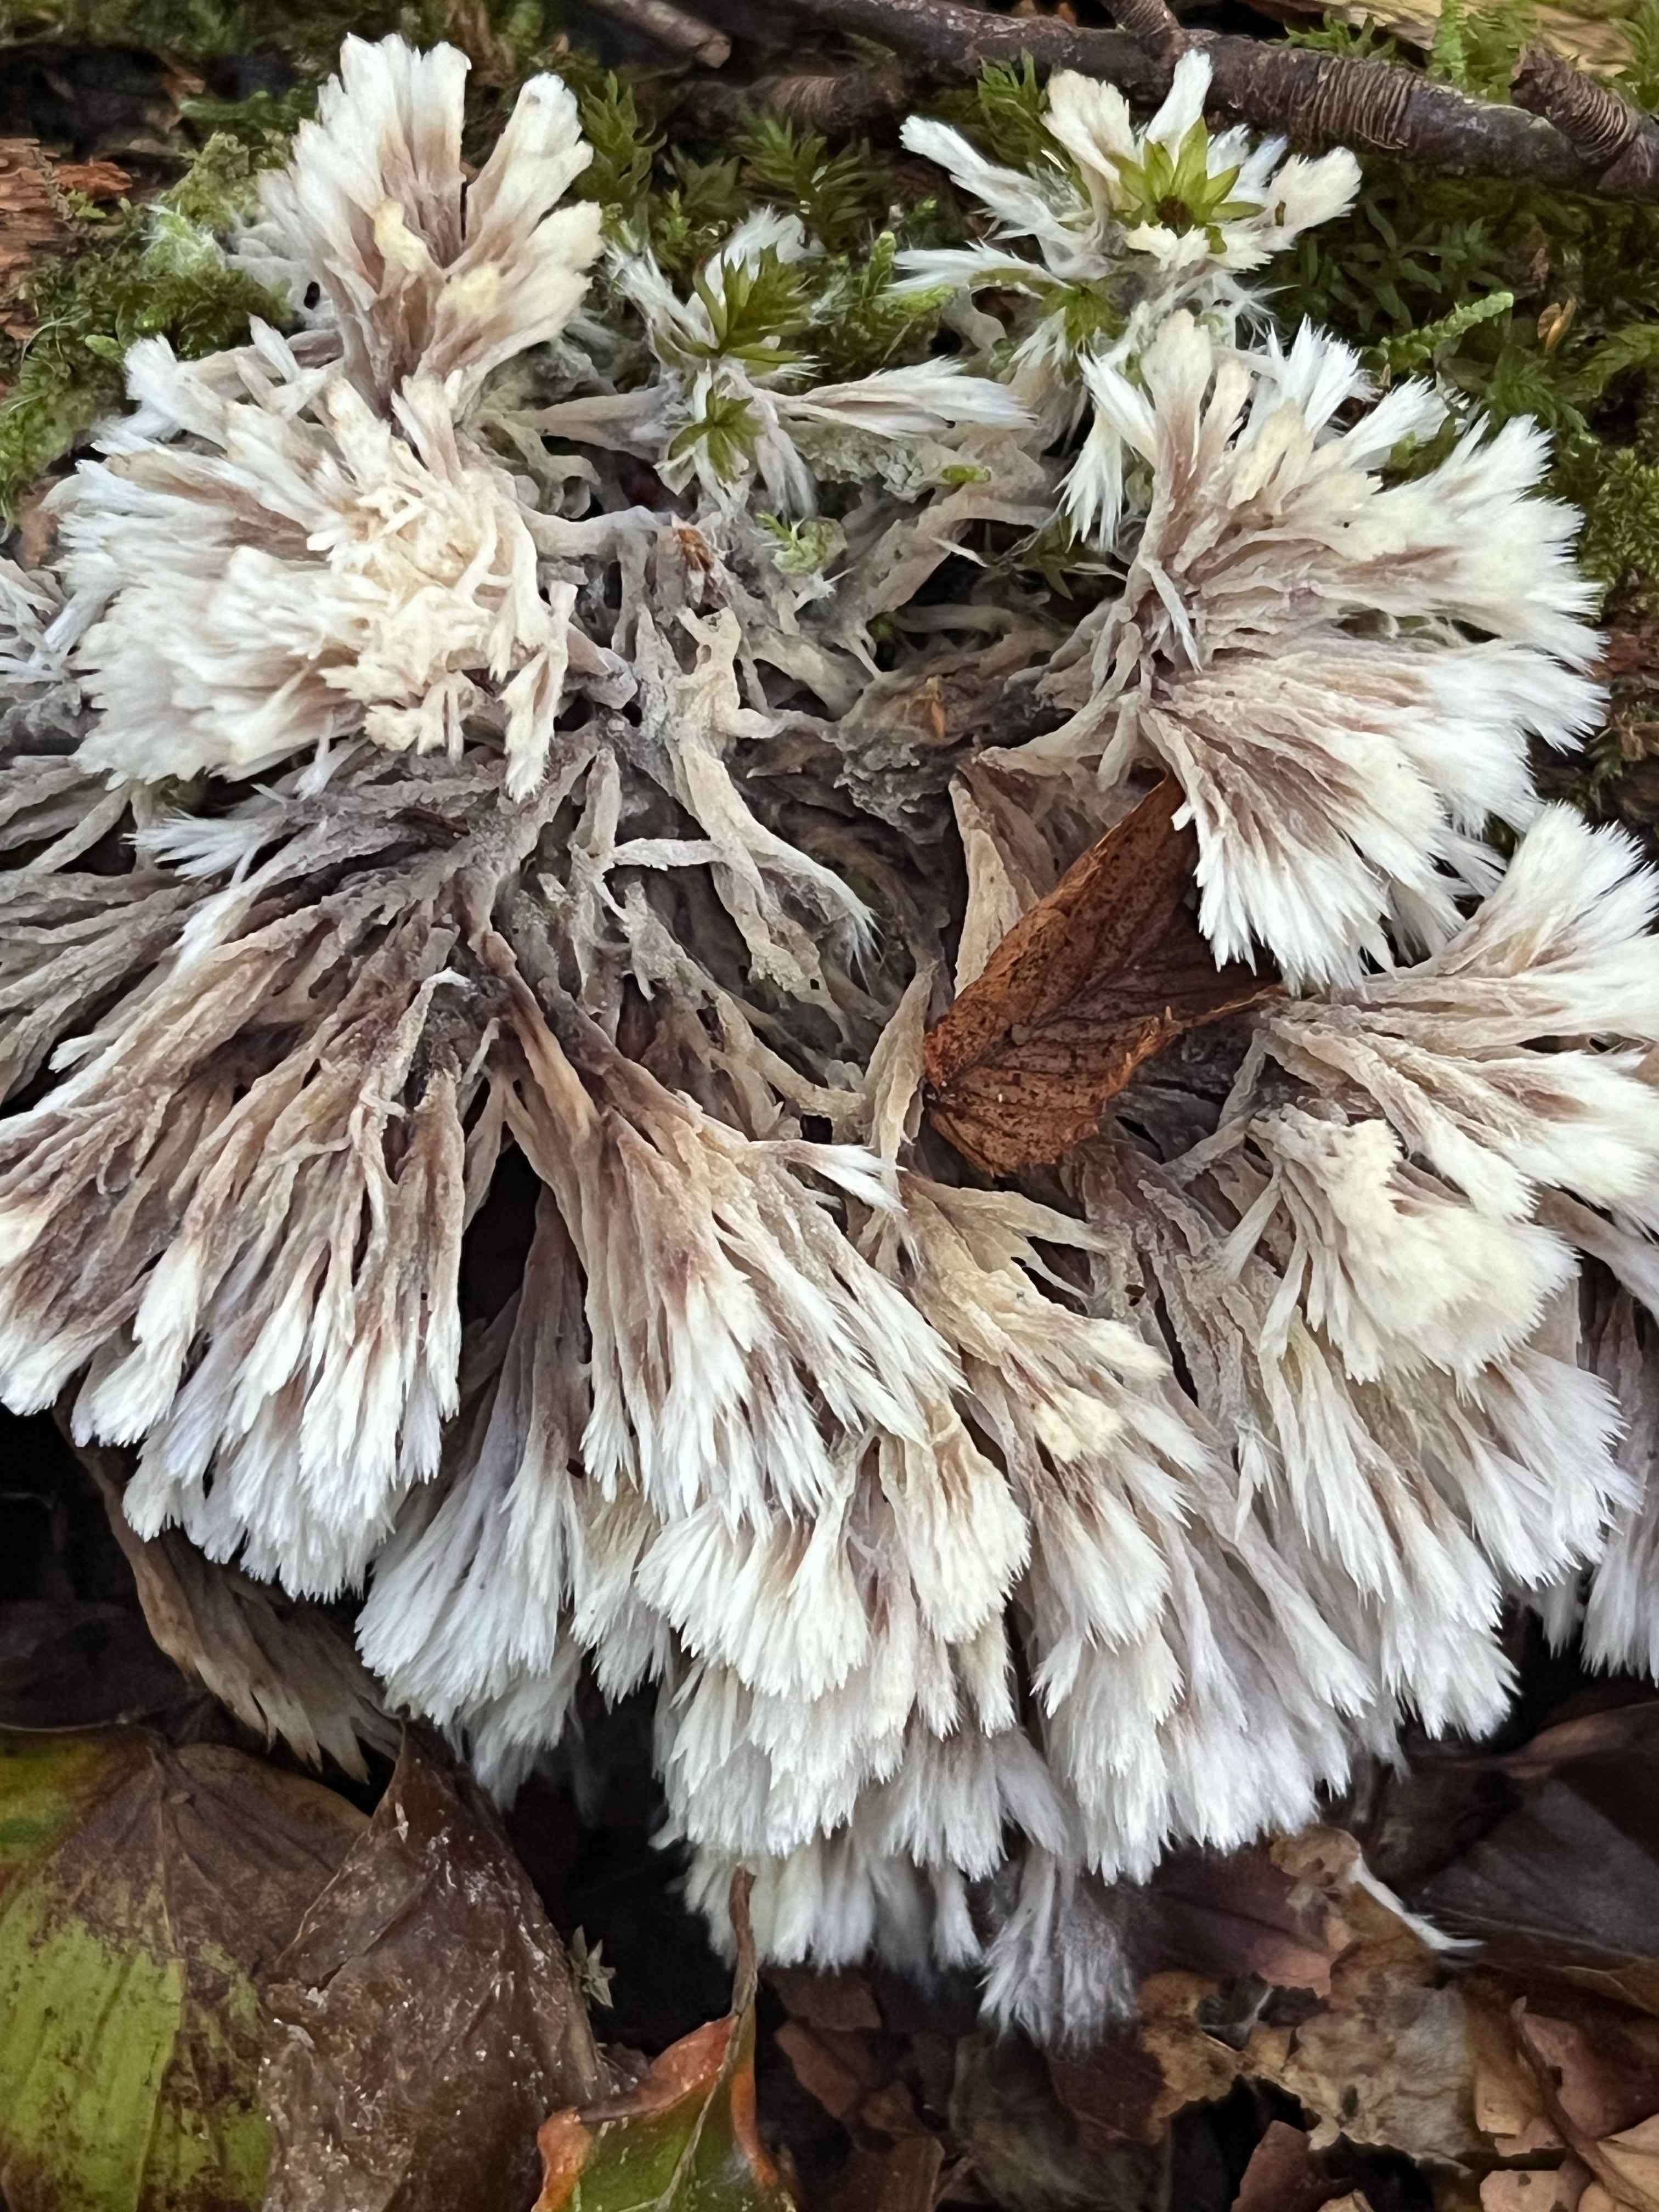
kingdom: Fungi
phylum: Basidiomycota
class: Agaricomycetes
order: Thelephorales
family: Thelephoraceae
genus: Thelephora
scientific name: Thelephora penicillata
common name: fladtrådt frynsesvamp
